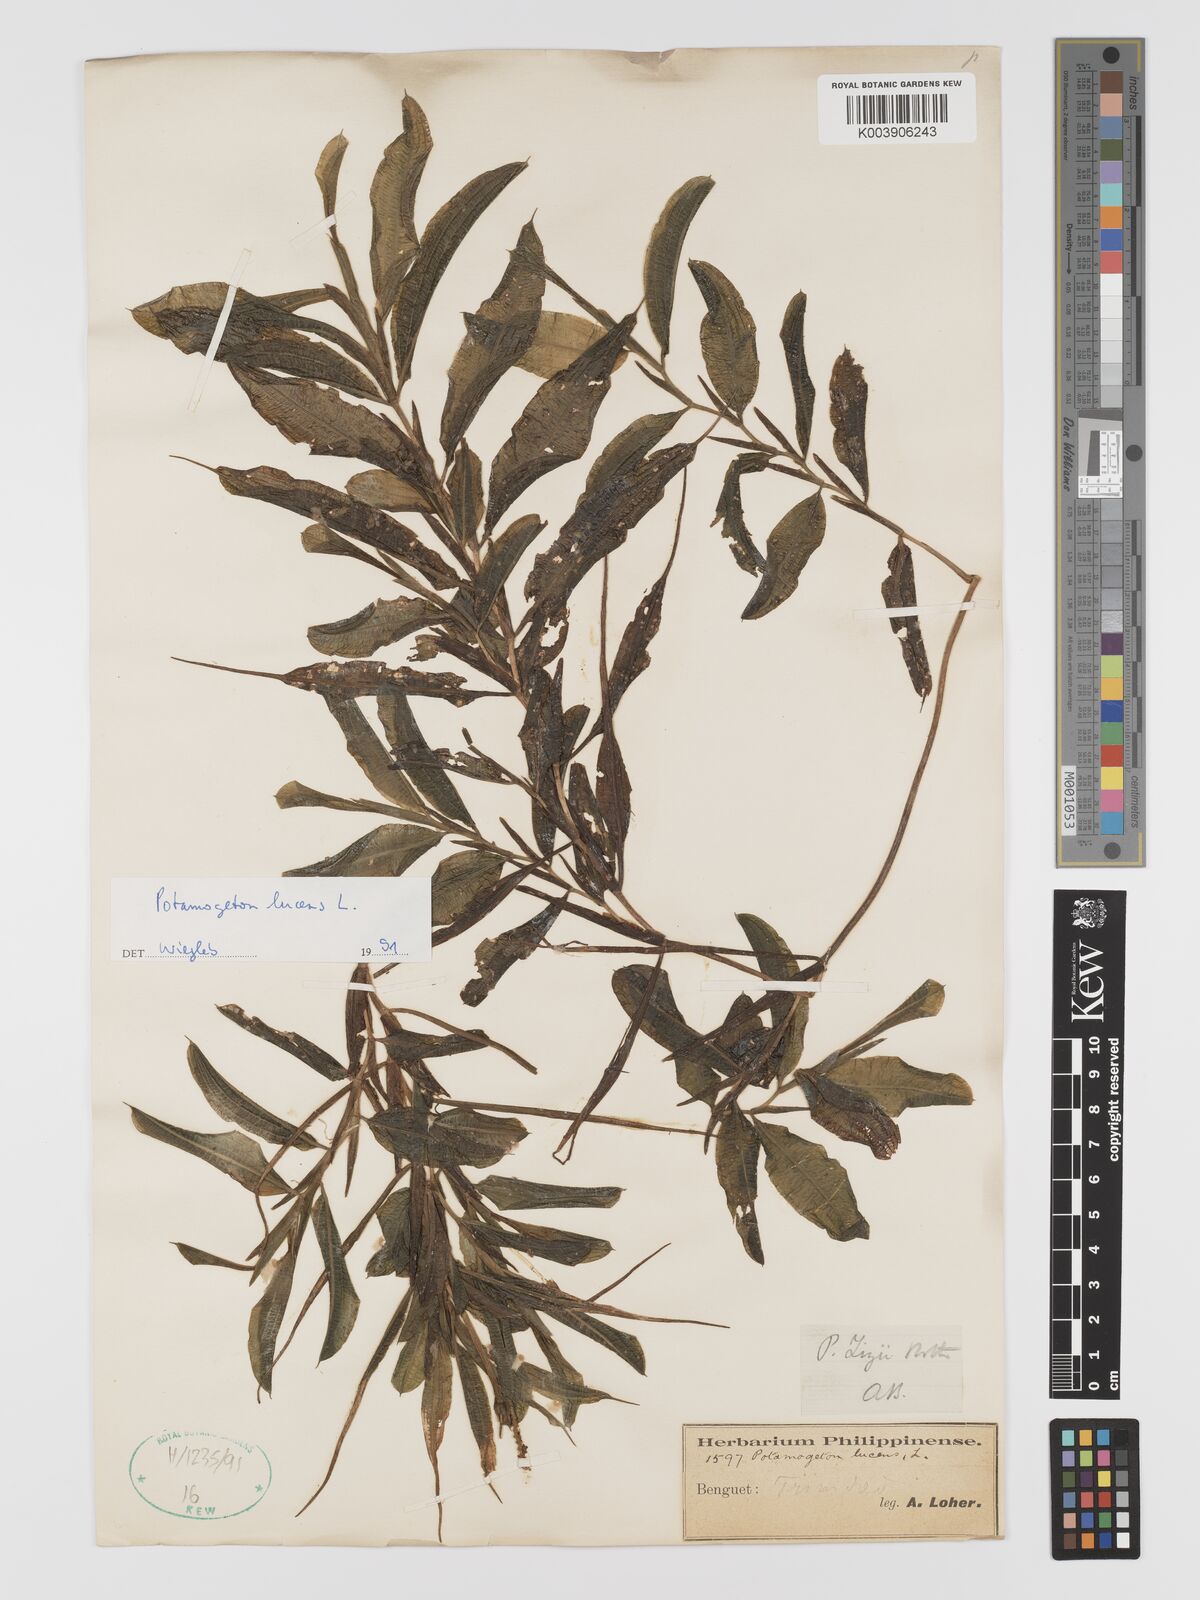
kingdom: Plantae
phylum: Tracheophyta
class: Liliopsida
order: Alismatales
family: Potamogetonaceae
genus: Potamogeton
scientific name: Potamogeton lucens
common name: Shining pondweed
